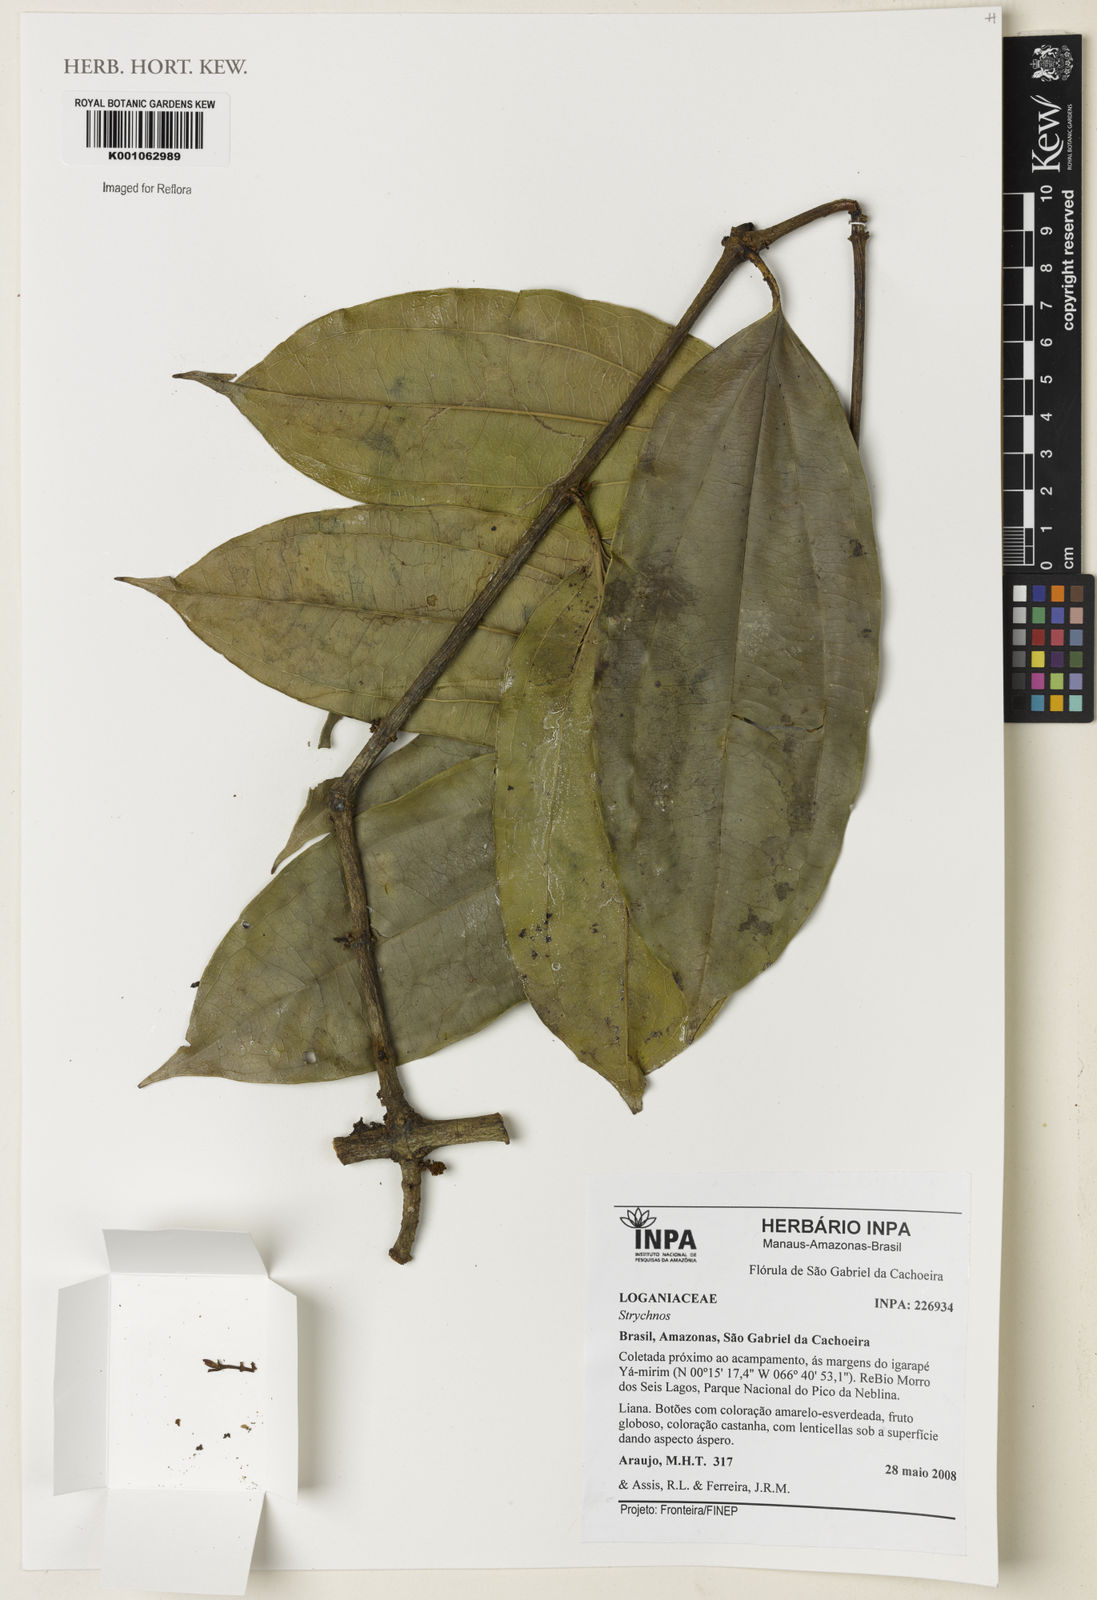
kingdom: Plantae
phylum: Tracheophyta
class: Magnoliopsida
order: Gentianales
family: Loganiaceae
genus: Strychnos
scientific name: Strychnos
